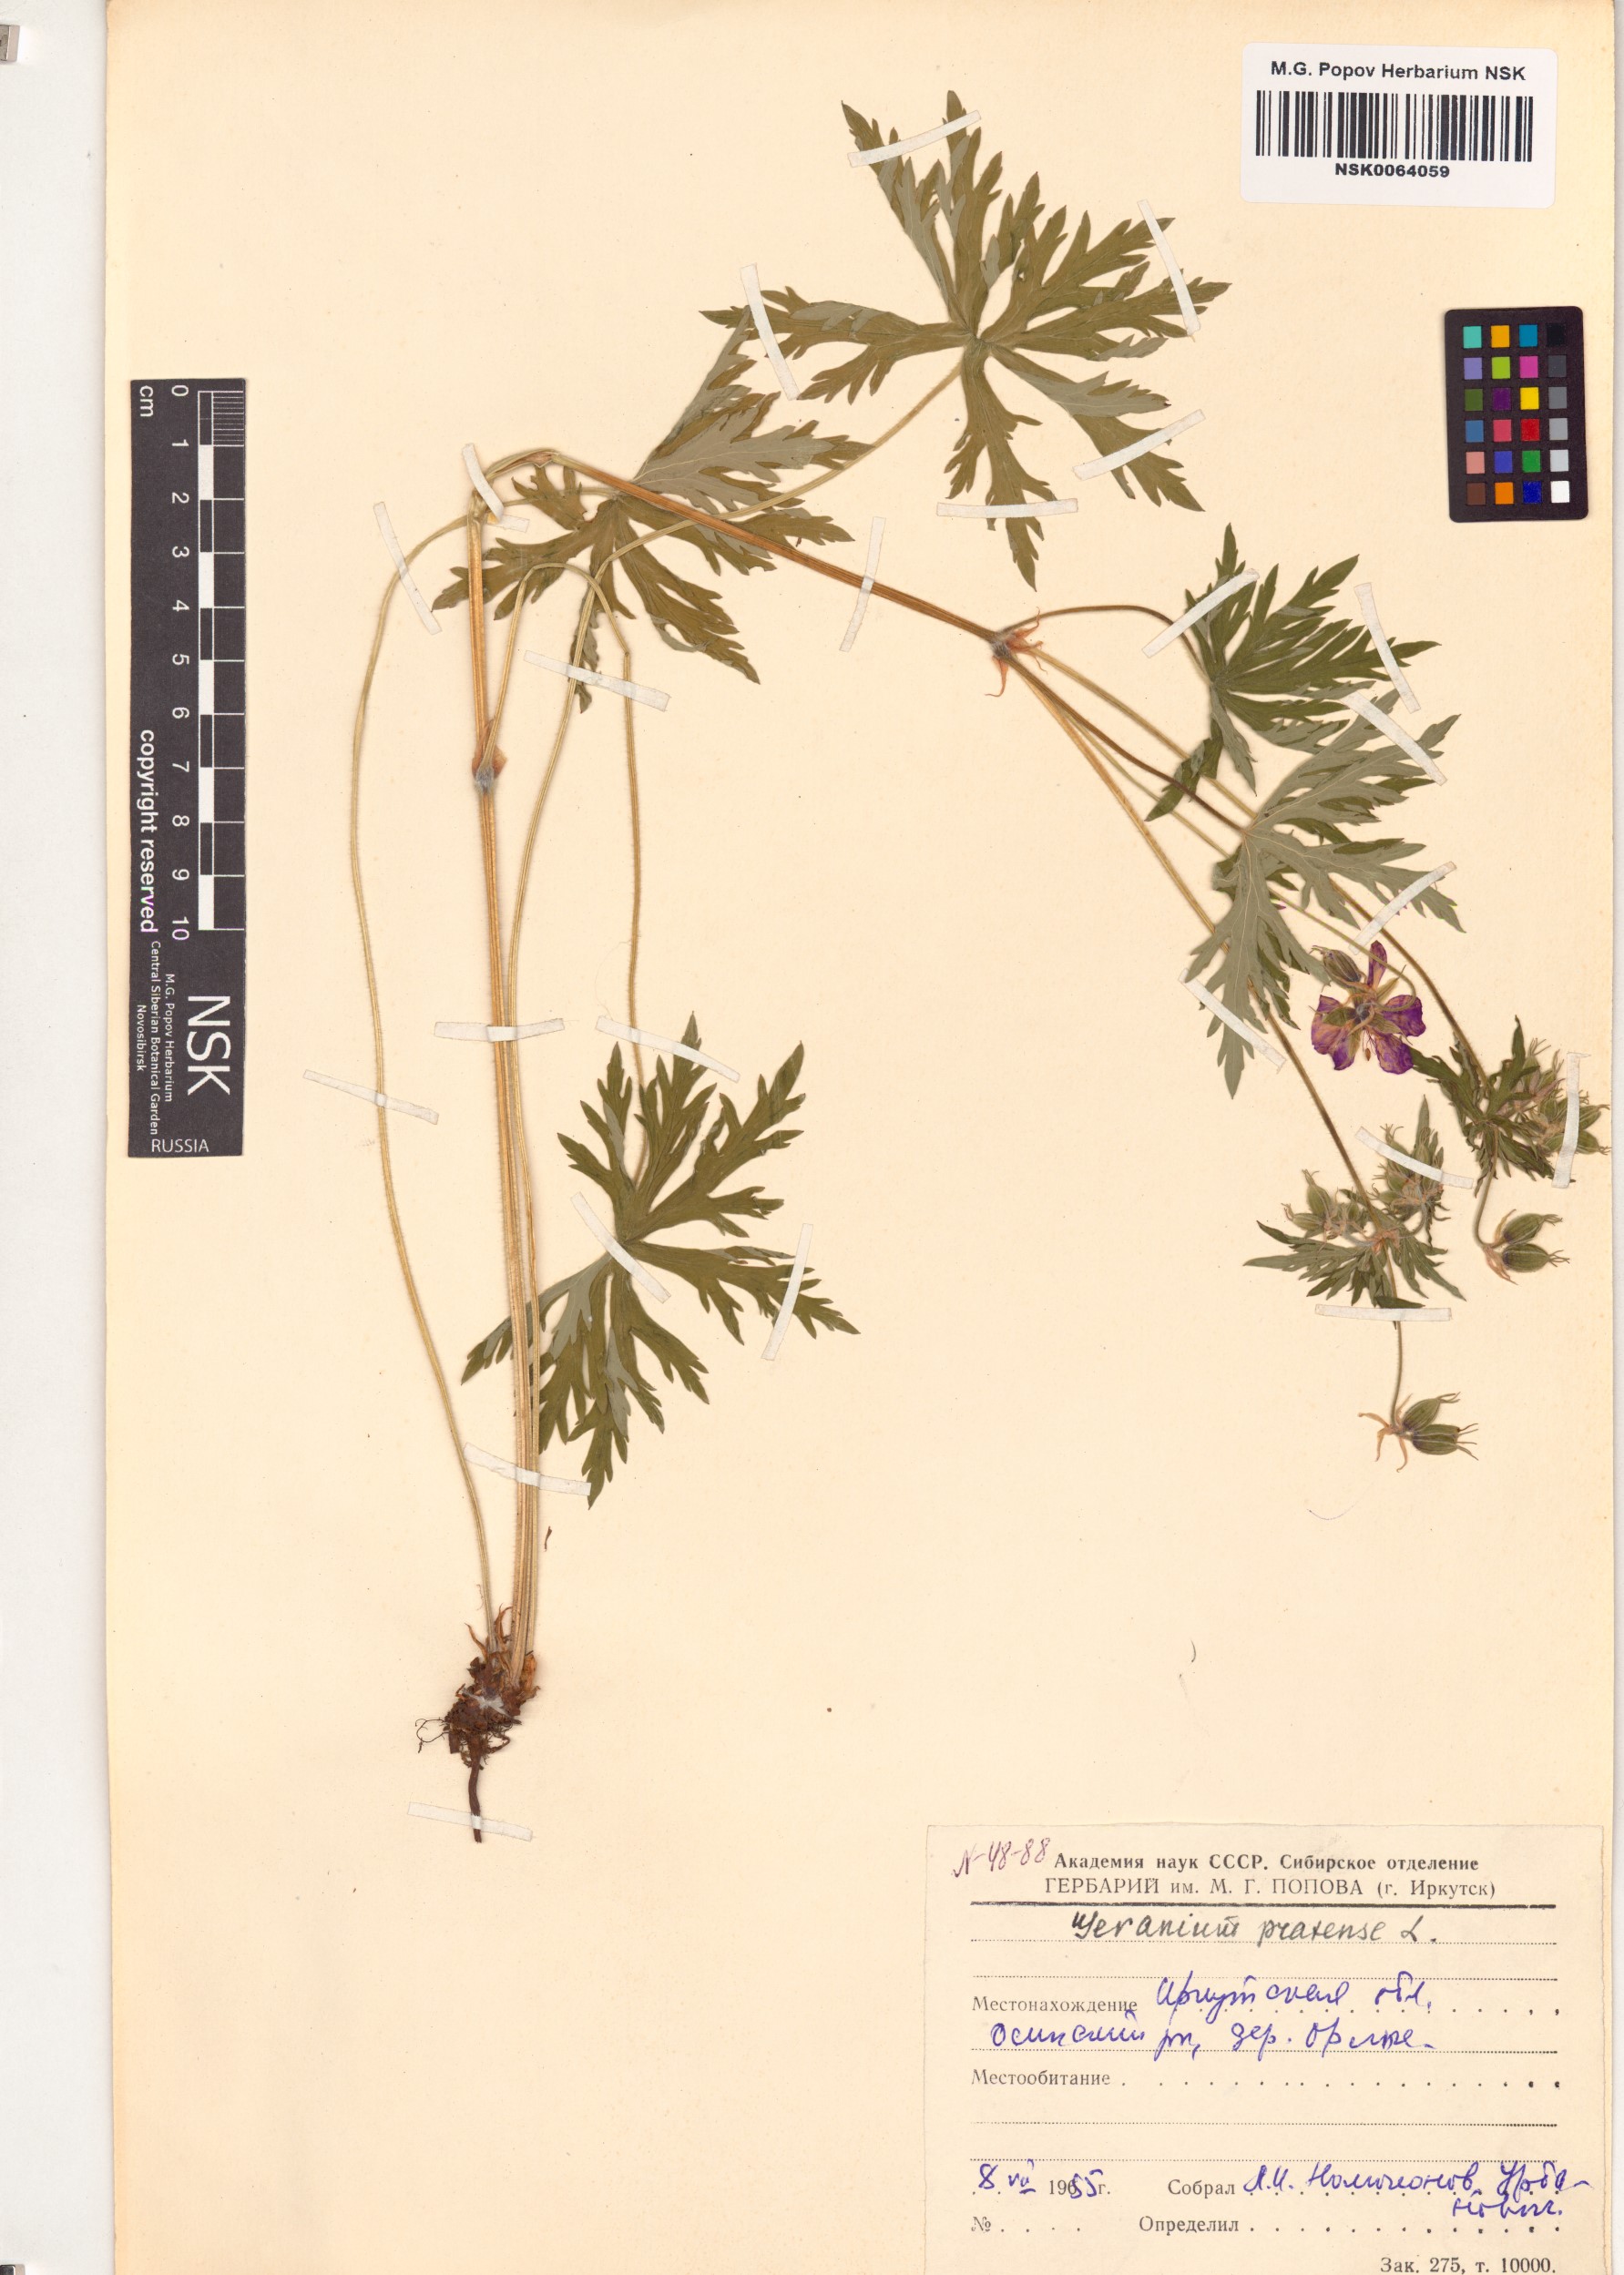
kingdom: Plantae
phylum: Tracheophyta
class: Magnoliopsida
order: Geraniales
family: Geraniaceae
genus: Geranium
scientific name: Geranium pratense
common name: Meadow crane's-bill
